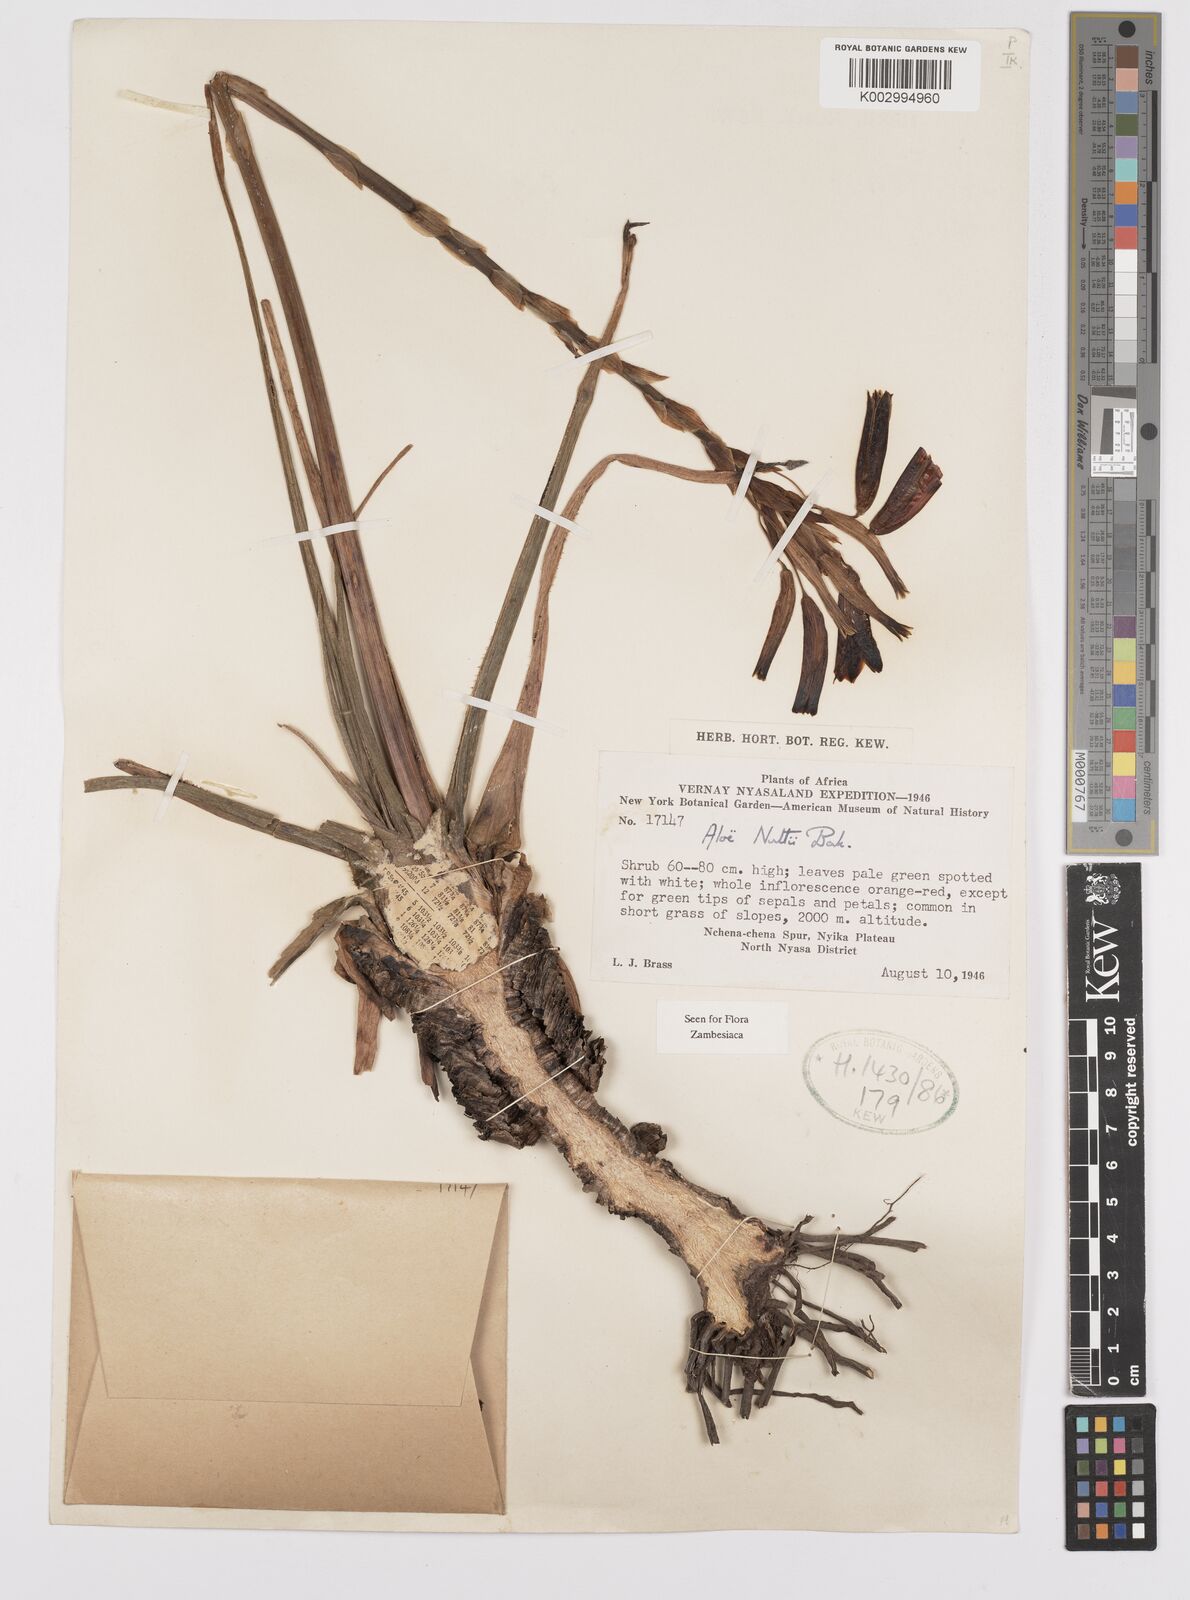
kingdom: Plantae
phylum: Tracheophyta
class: Liliopsida
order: Asparagales
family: Asphodelaceae
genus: Aloe
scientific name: Aloe nuttii
